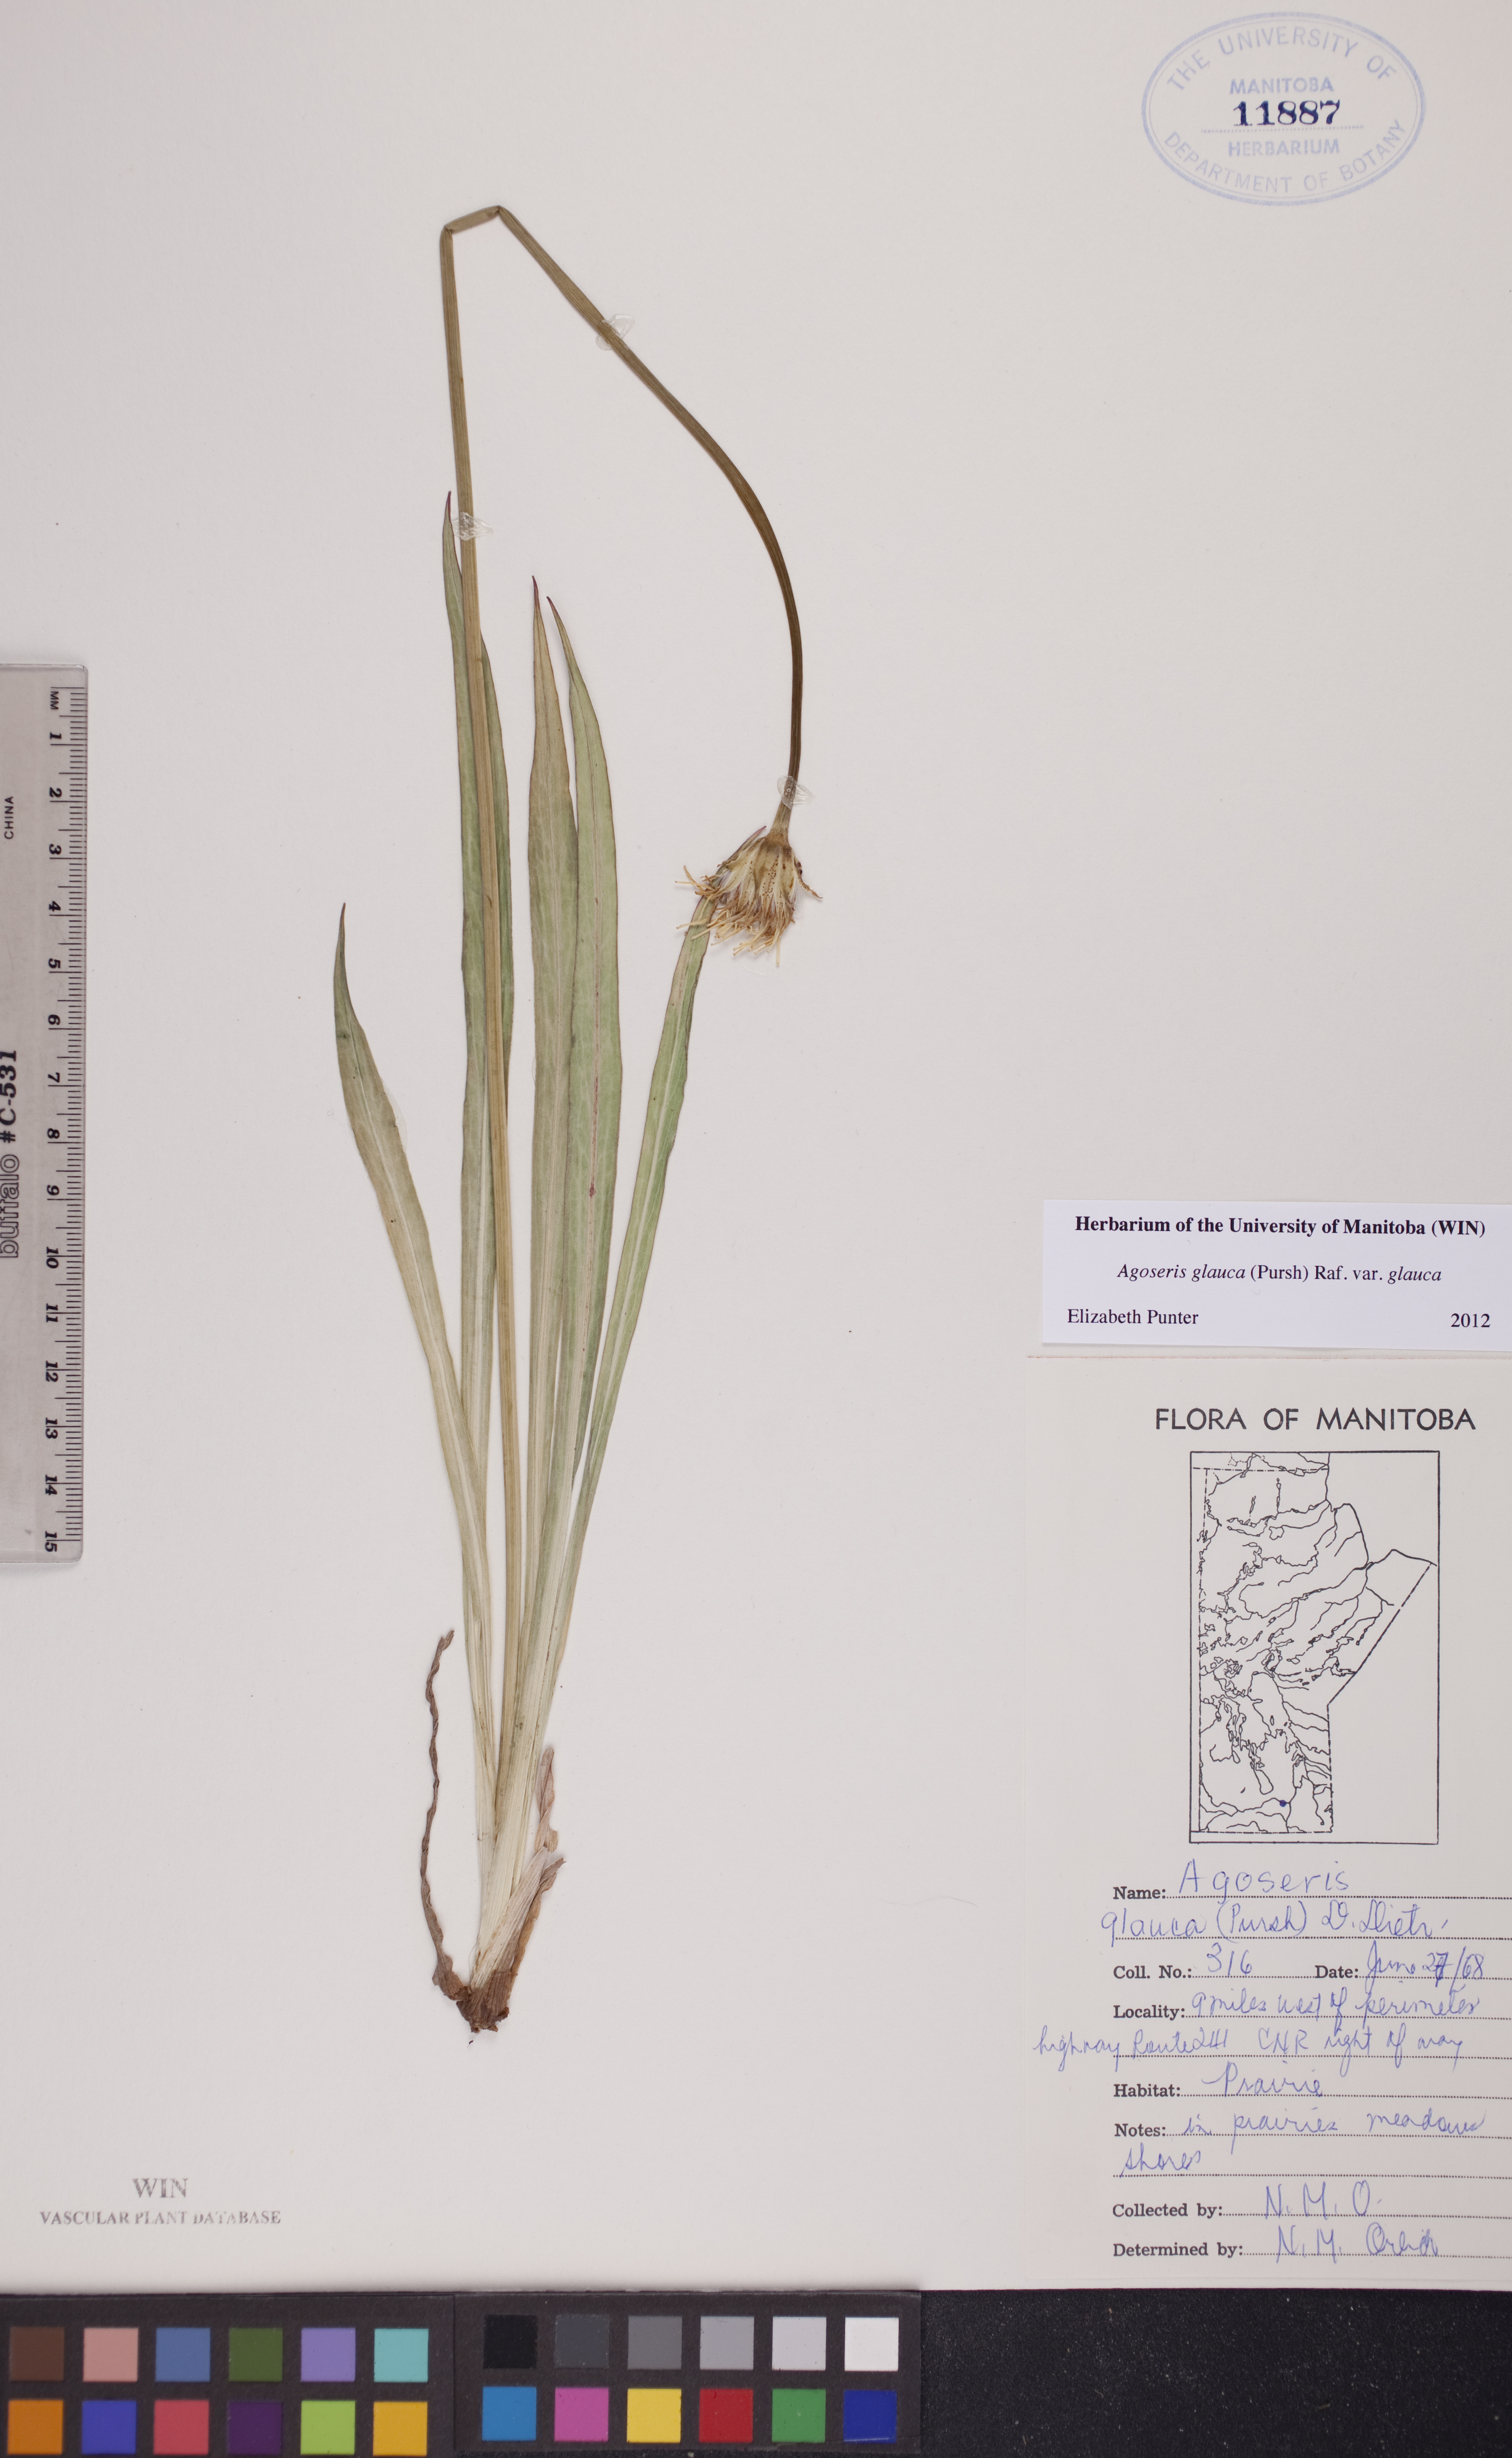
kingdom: Plantae
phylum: Tracheophyta
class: Magnoliopsida
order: Asterales
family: Asteraceae
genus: Agoseris
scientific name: Agoseris glauca
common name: Prairie agoseris
